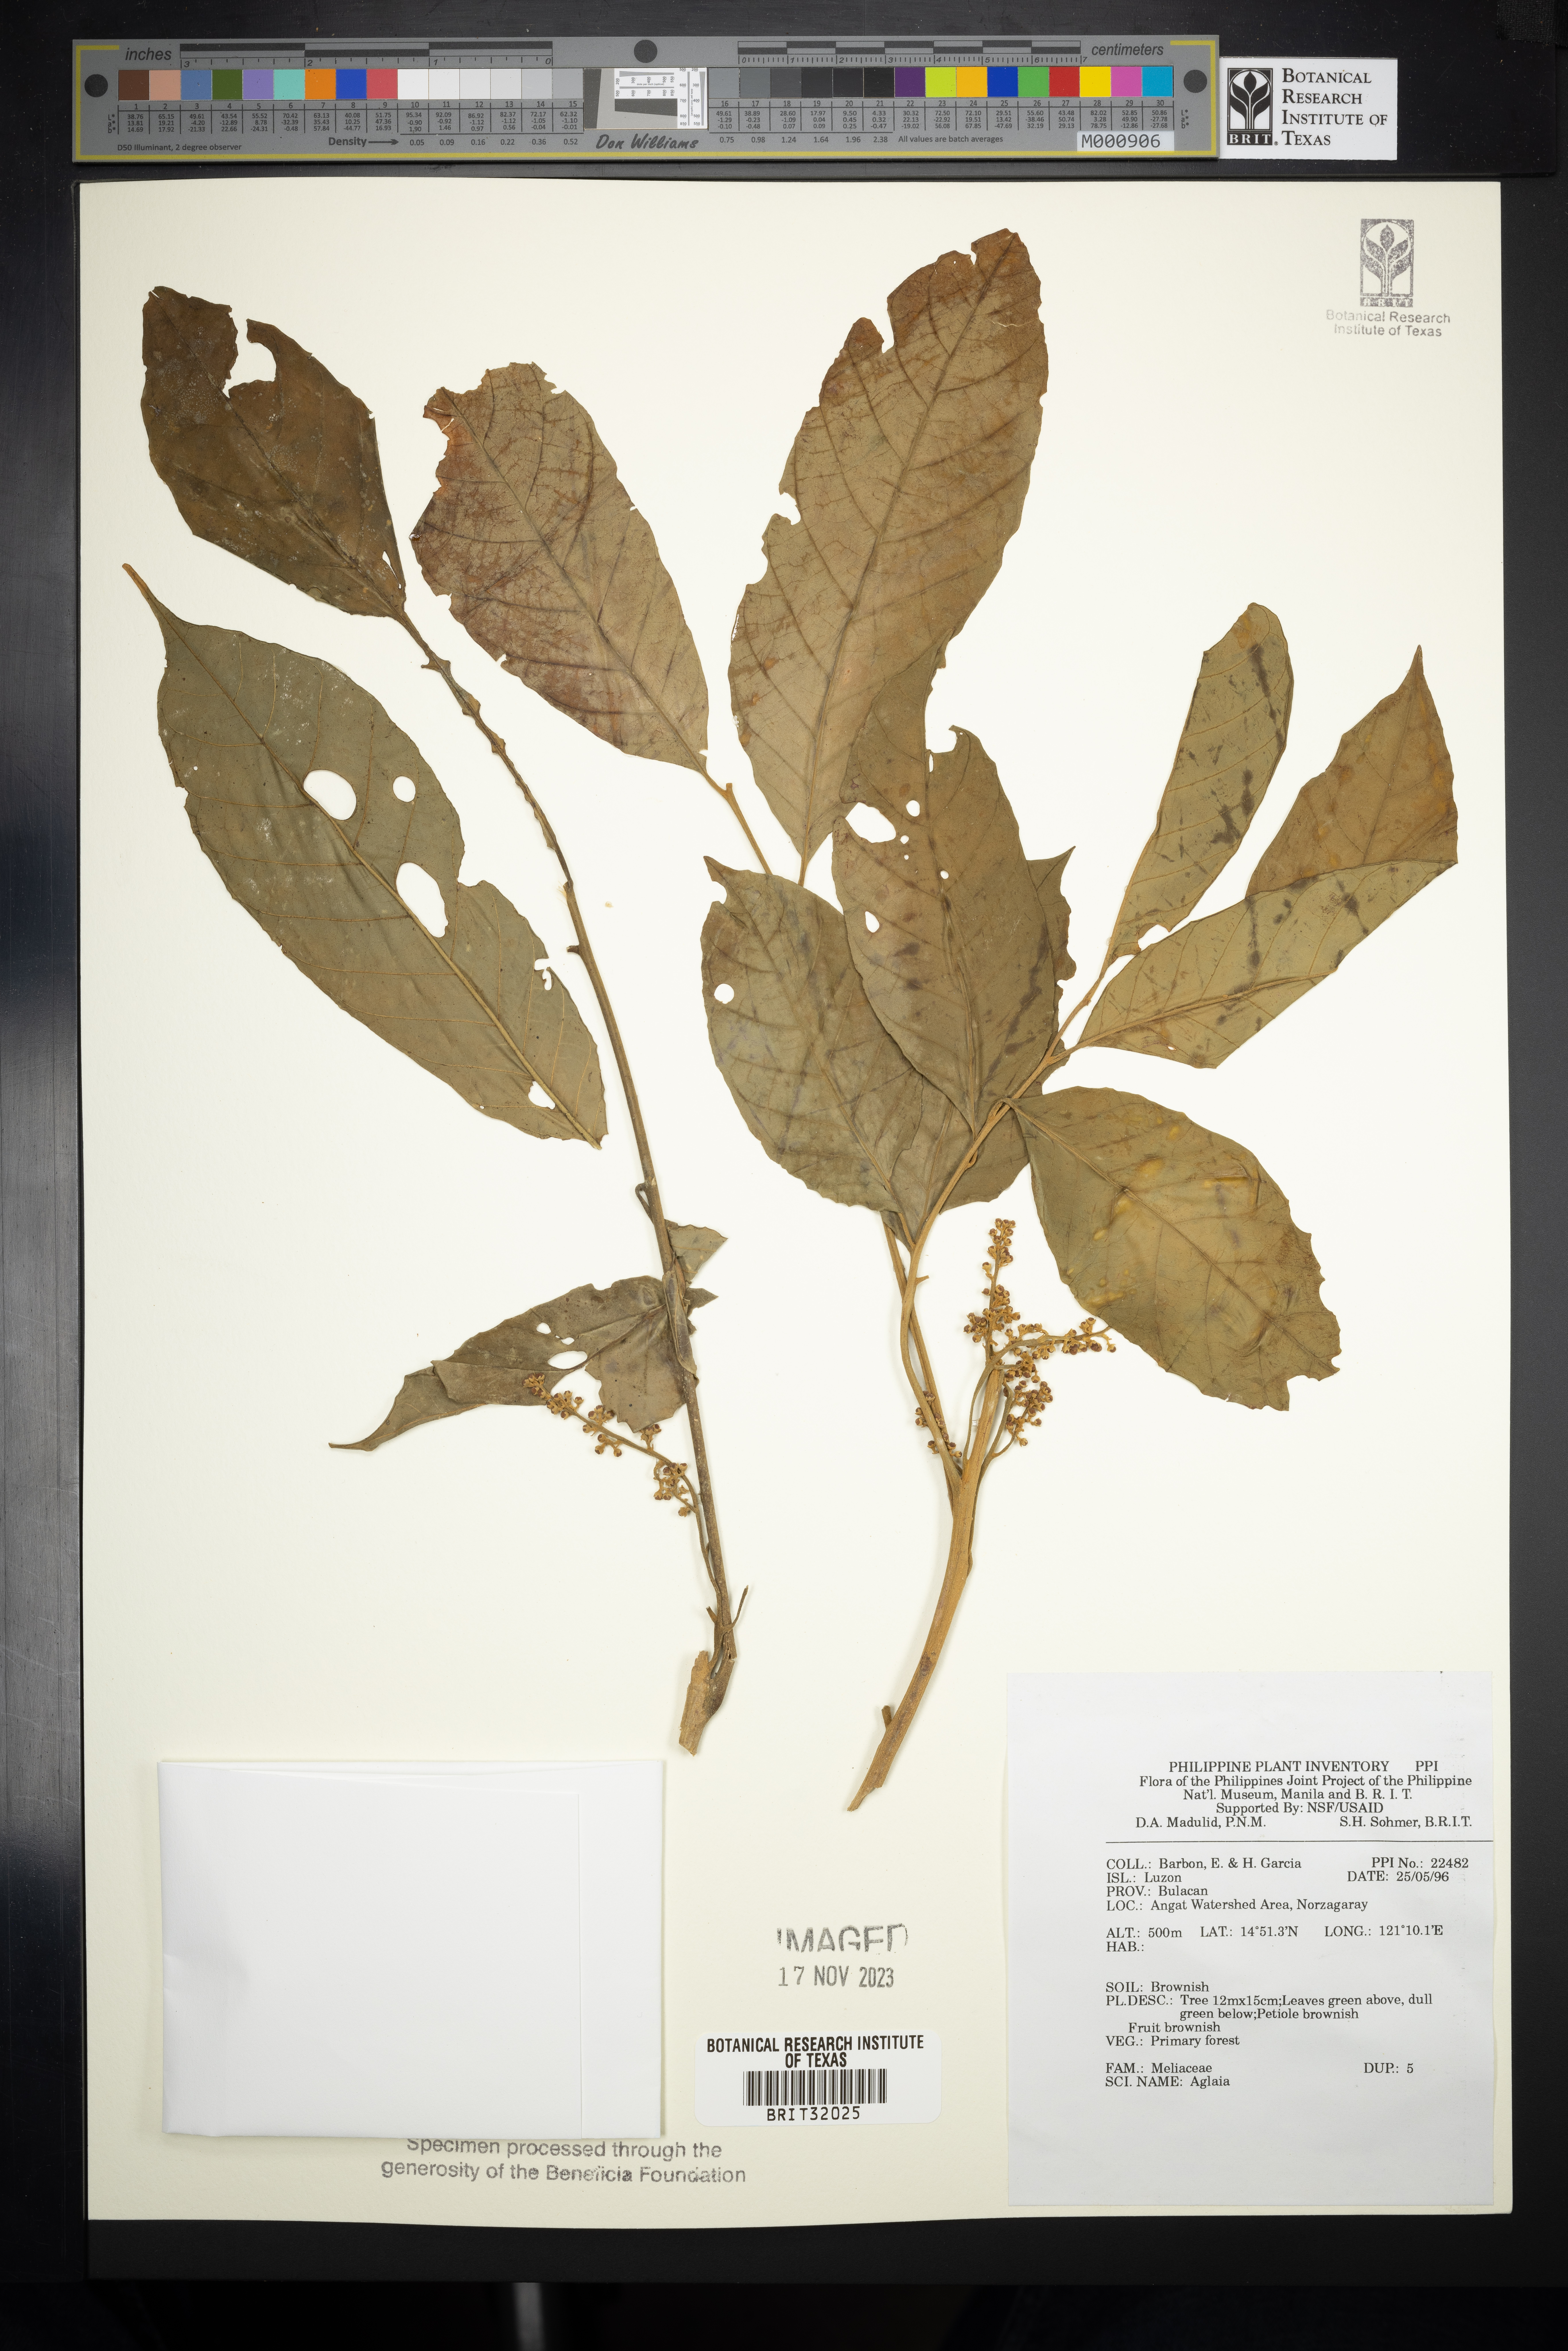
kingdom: Plantae
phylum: Tracheophyta
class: Magnoliopsida
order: Sapindales
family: Meliaceae
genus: Aglaia
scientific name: Aglaia
